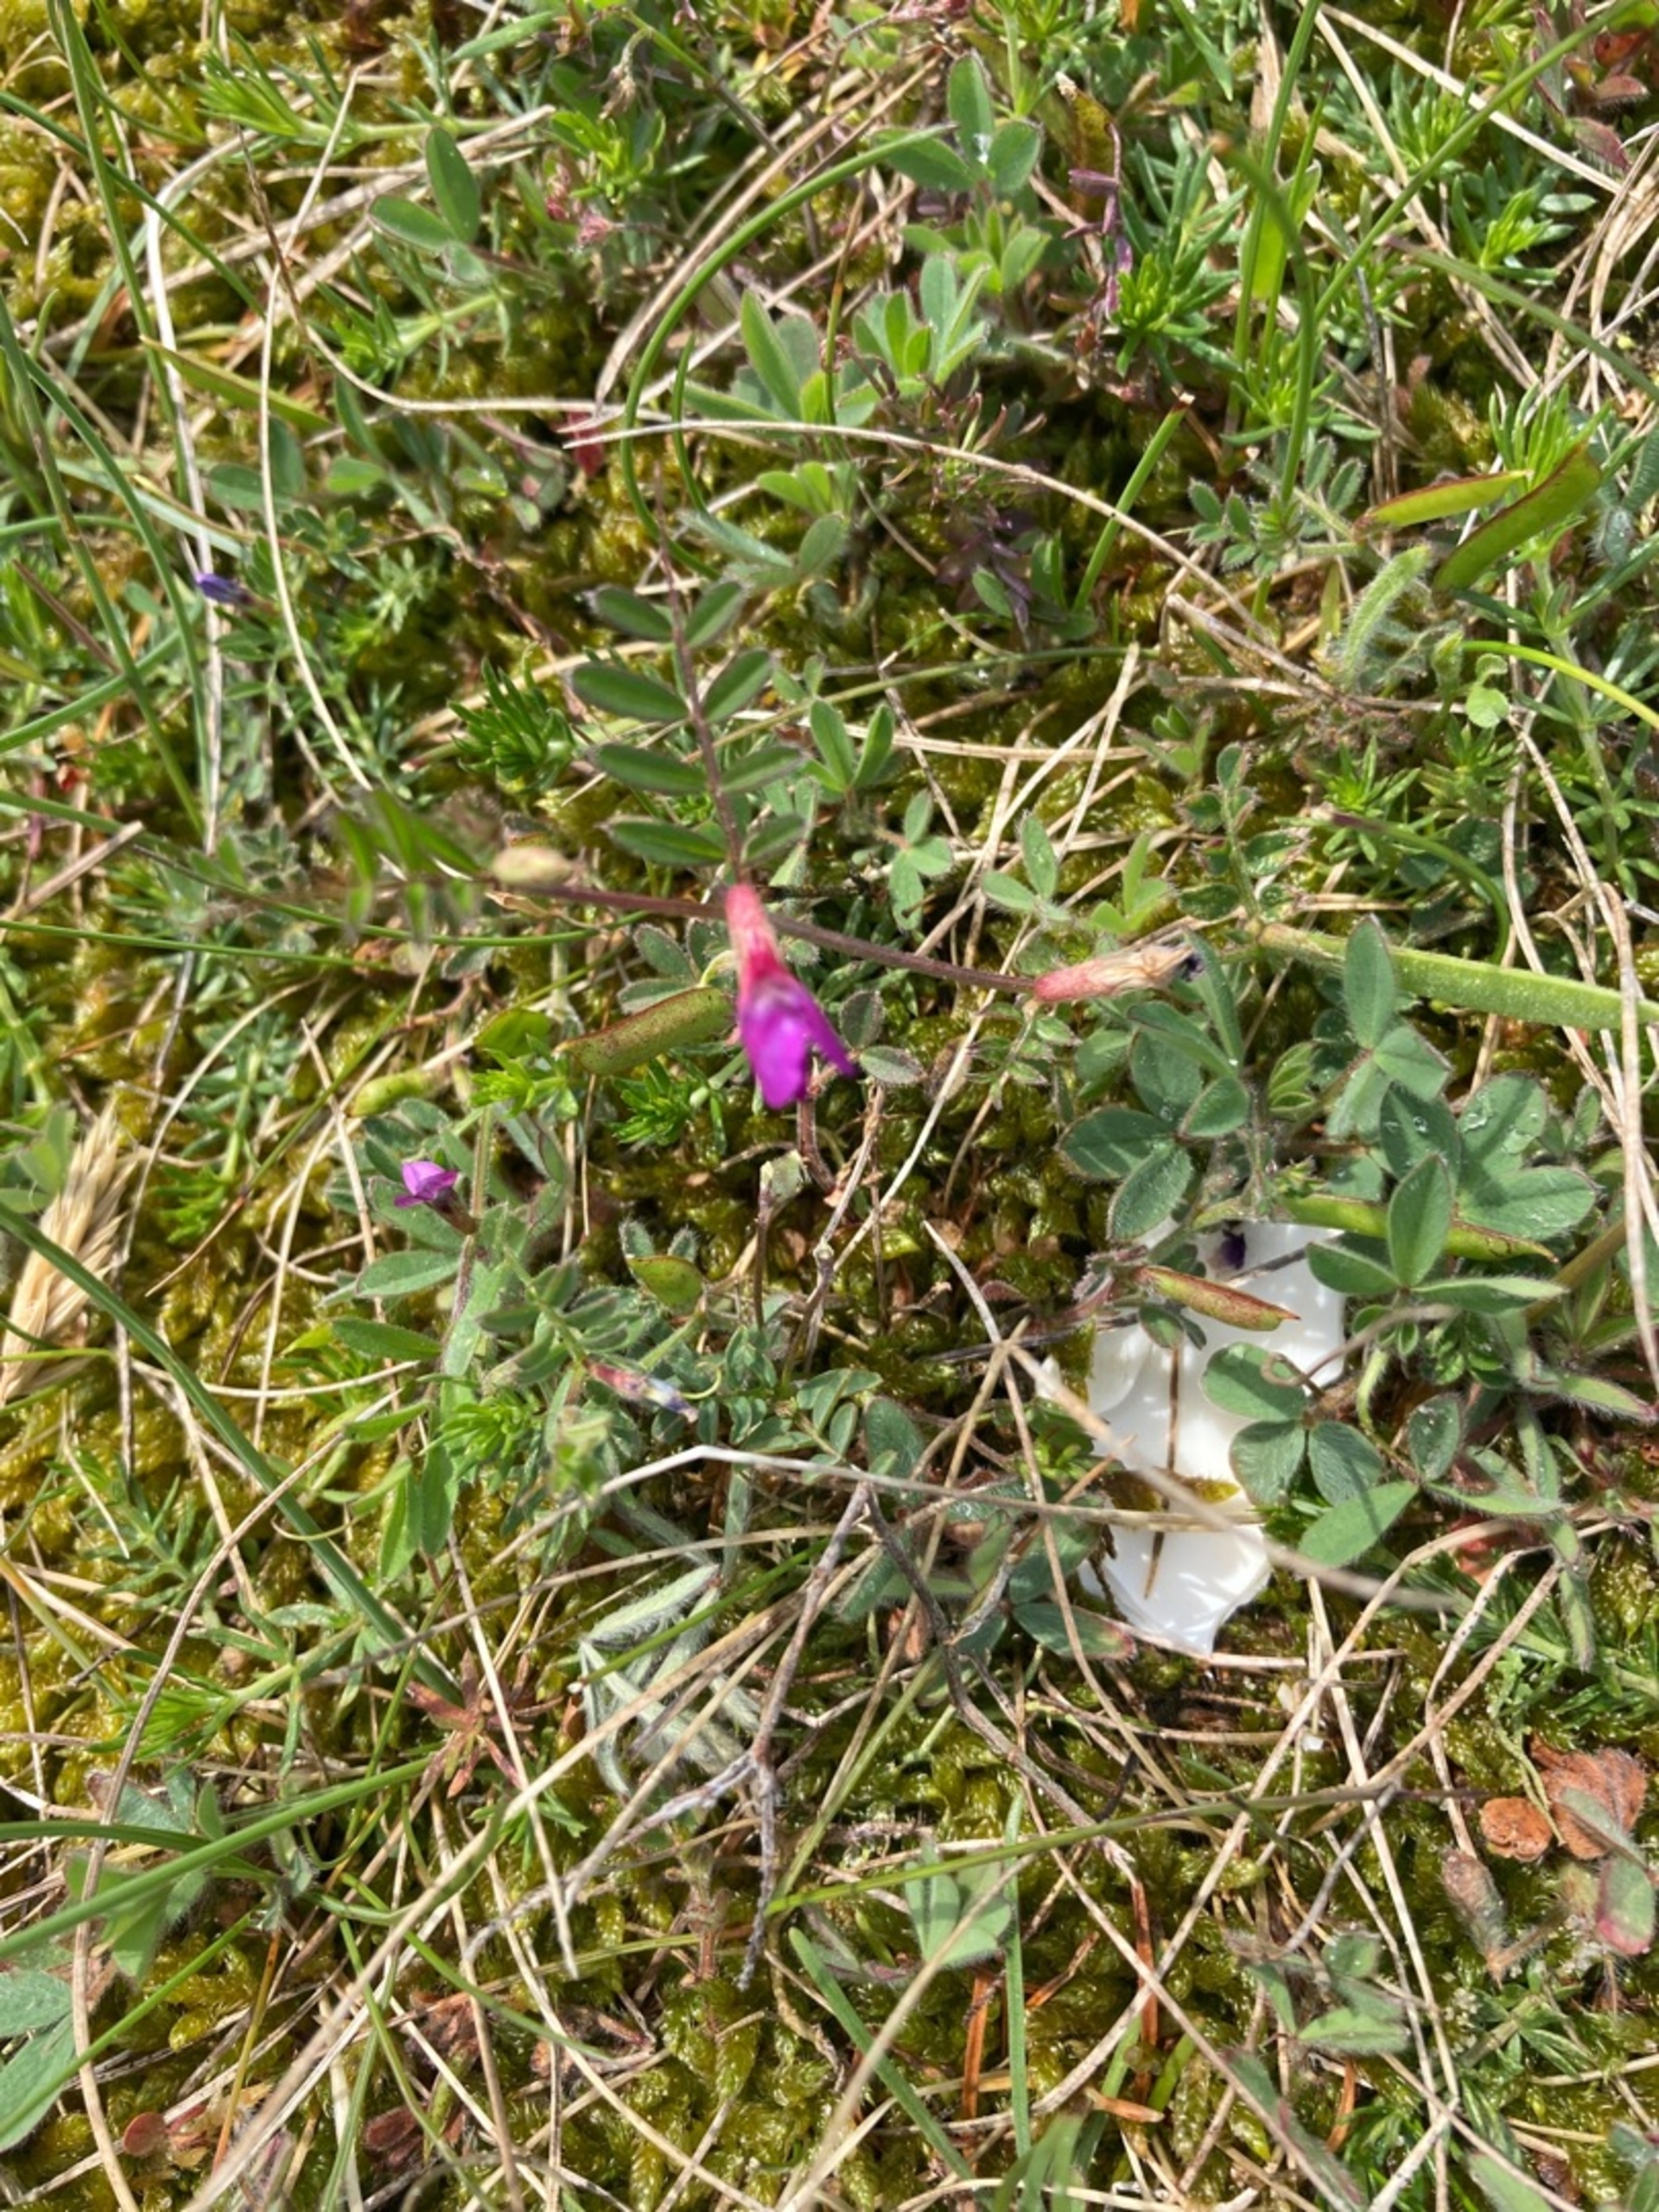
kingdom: Plantae
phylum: Tracheophyta
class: Magnoliopsida
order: Fabales
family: Fabaceae
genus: Vicia
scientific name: Vicia sativa
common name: Smalbladet vikke
